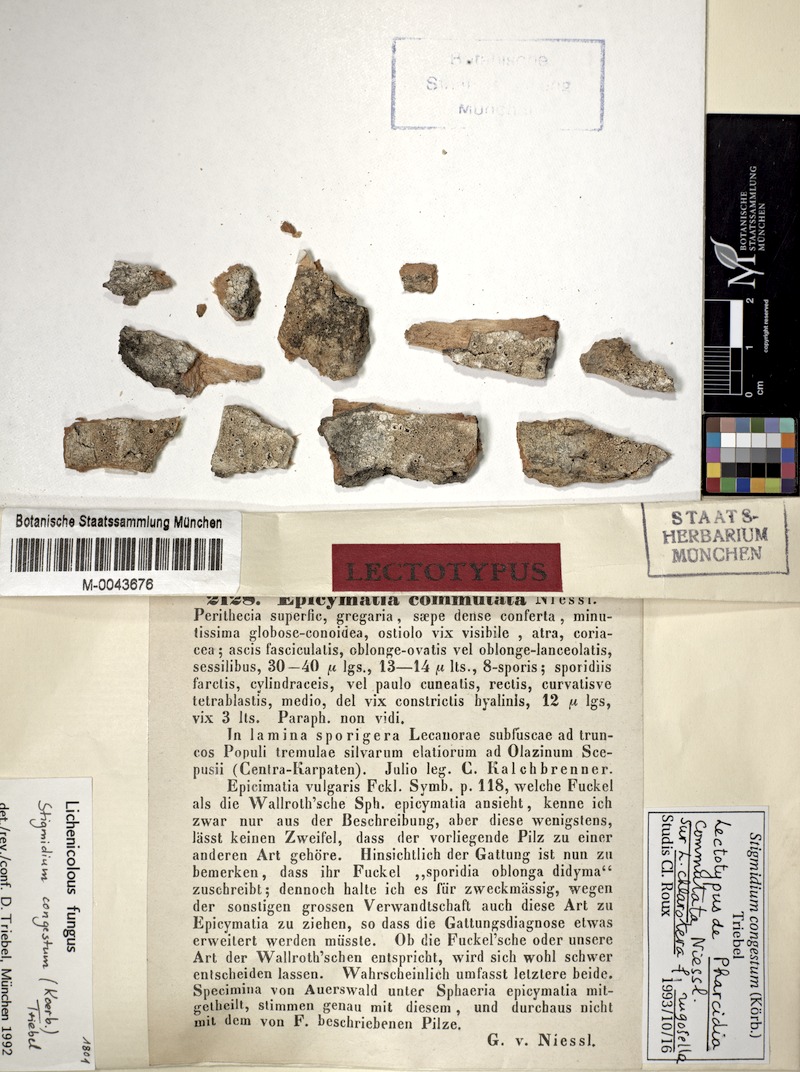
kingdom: Fungi
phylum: Ascomycota
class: Dothideomycetes
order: Mycosphaerellales
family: Mycosphaerellaceae
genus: Stigmidium
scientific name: Stigmidium congestum
